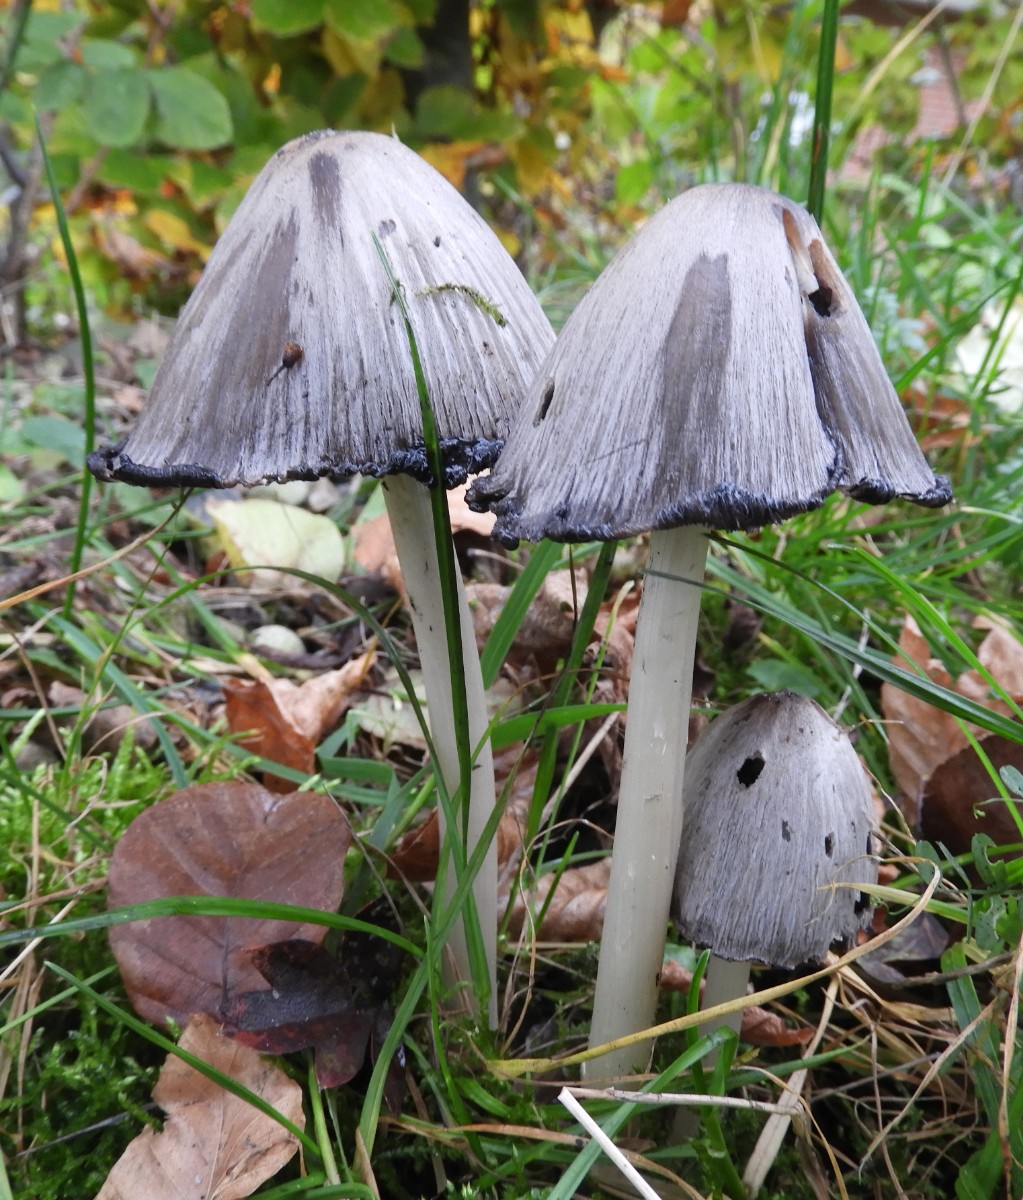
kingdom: Fungi
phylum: Basidiomycota
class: Agaricomycetes
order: Agaricales
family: Psathyrellaceae
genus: Coprinopsis
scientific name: Coprinopsis atramentaria
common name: almindelig blækhat
